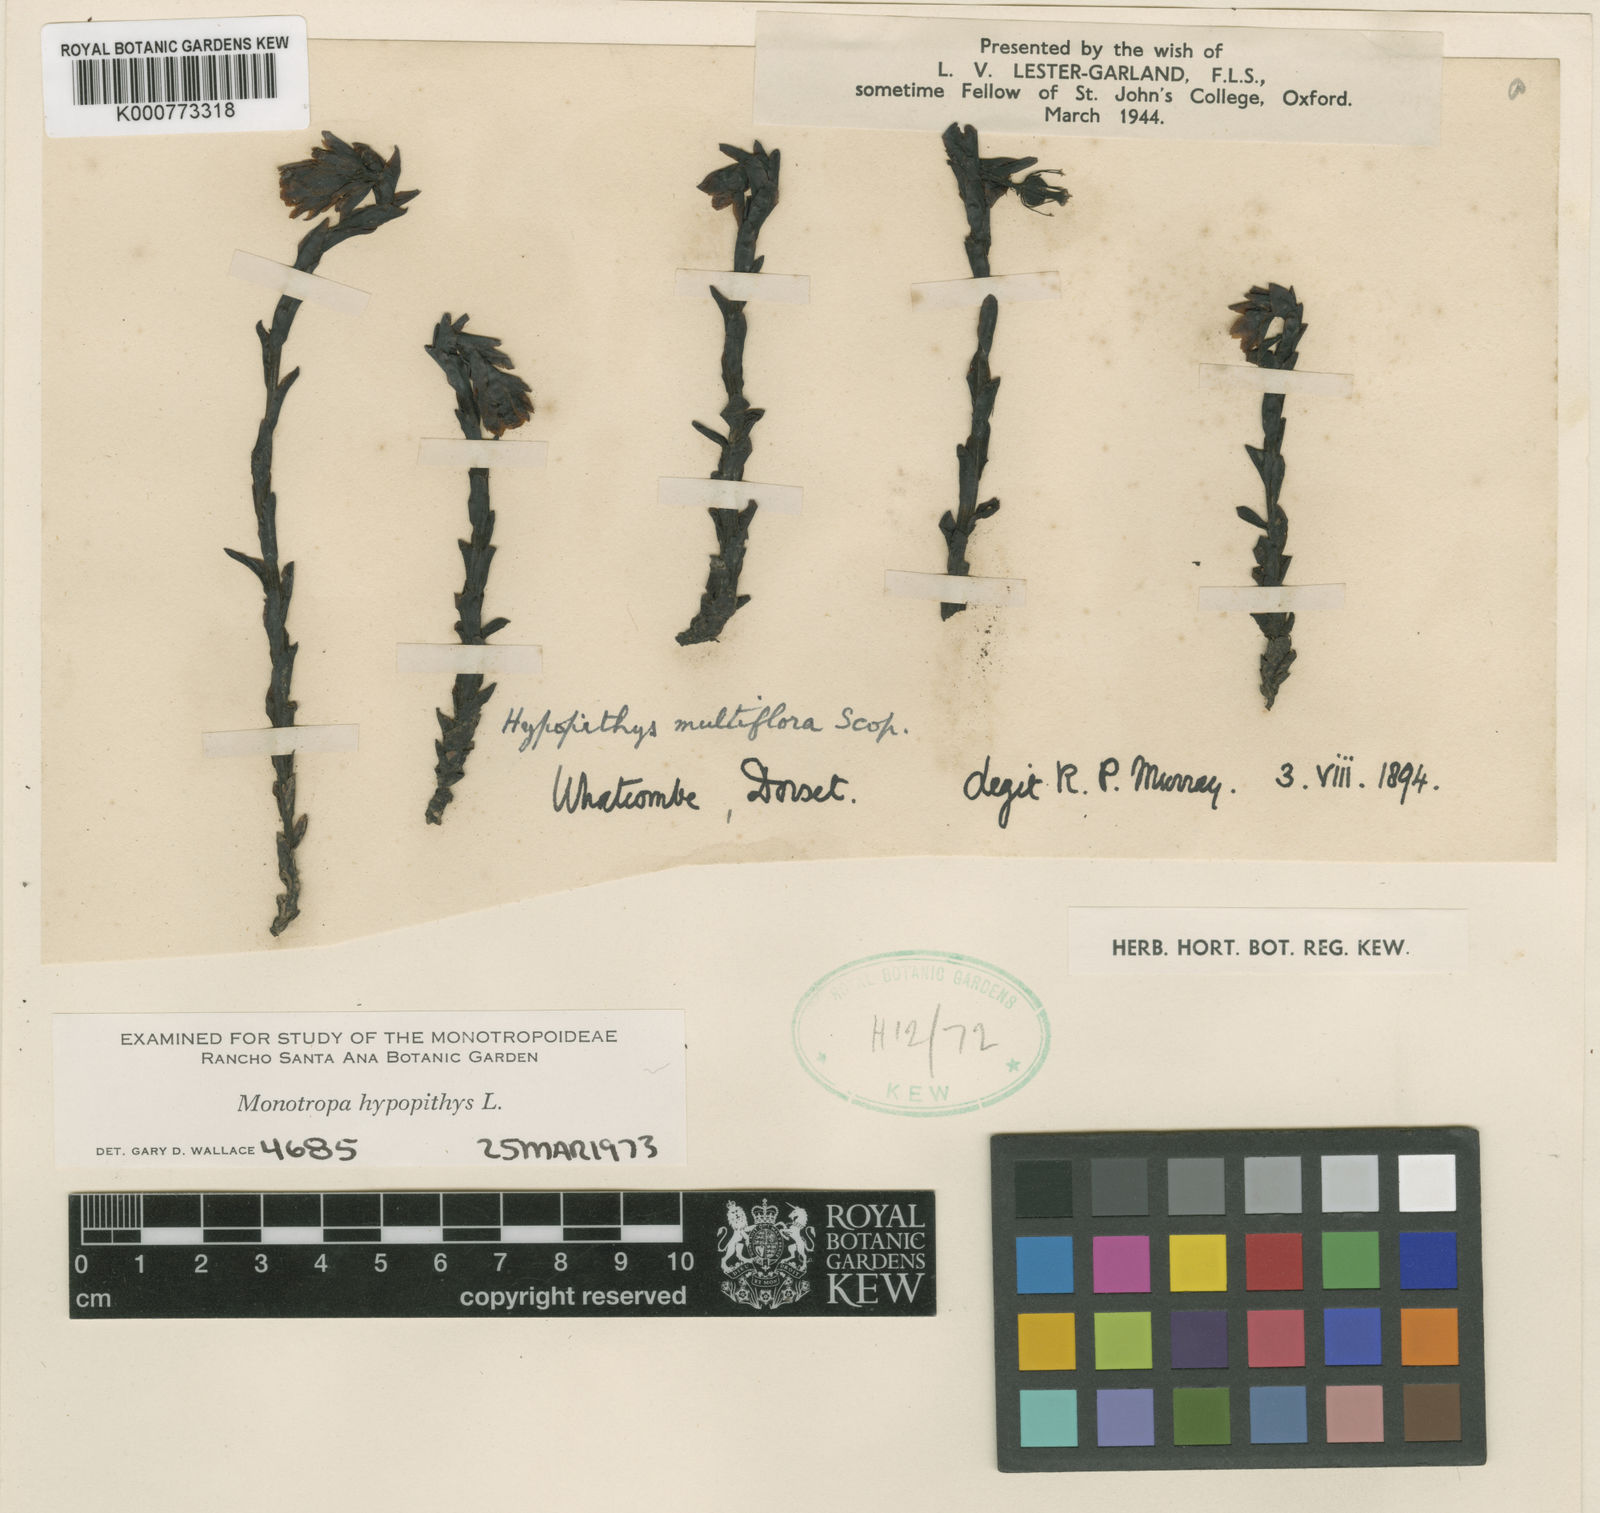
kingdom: Plantae
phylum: Tracheophyta
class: Magnoliopsida
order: Ericales
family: Ericaceae
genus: Monotropa
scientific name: Monotropa
